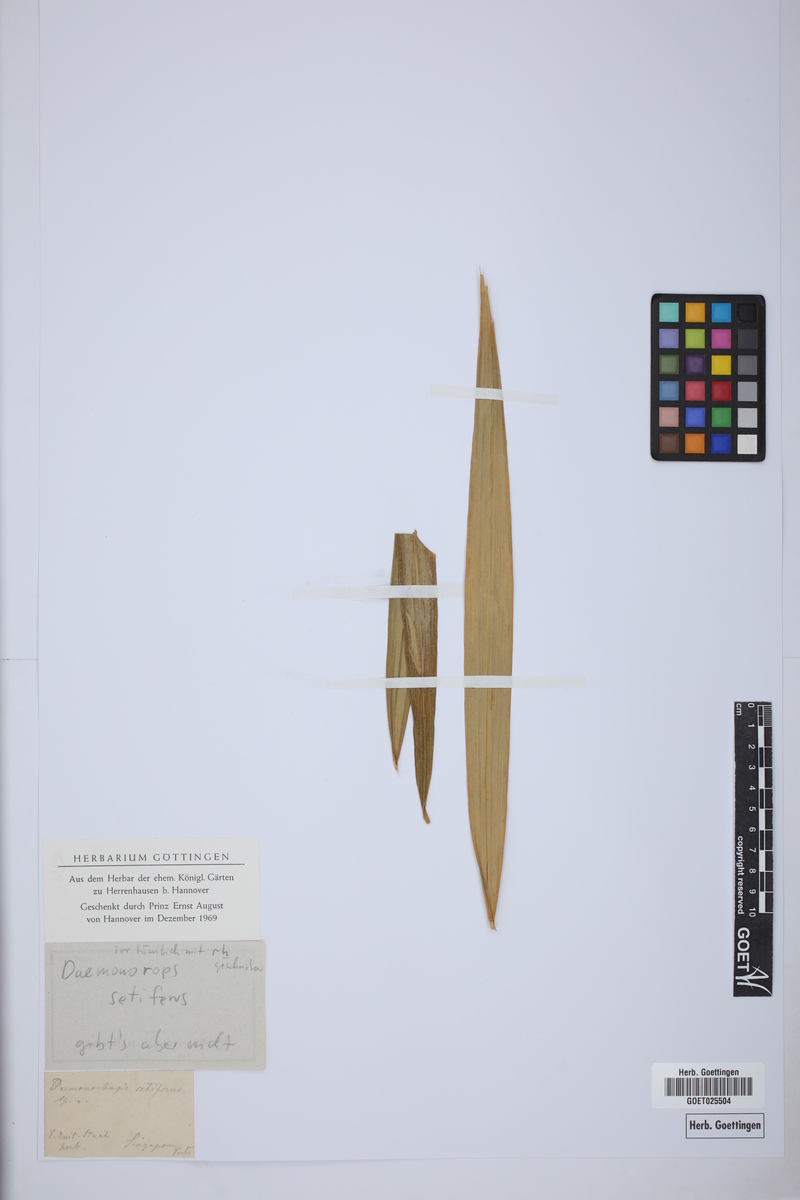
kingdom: Plantae
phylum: Tracheophyta
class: Liliopsida
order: Arecales
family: Arecaceae
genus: Daemonorops
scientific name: Daemonorops
